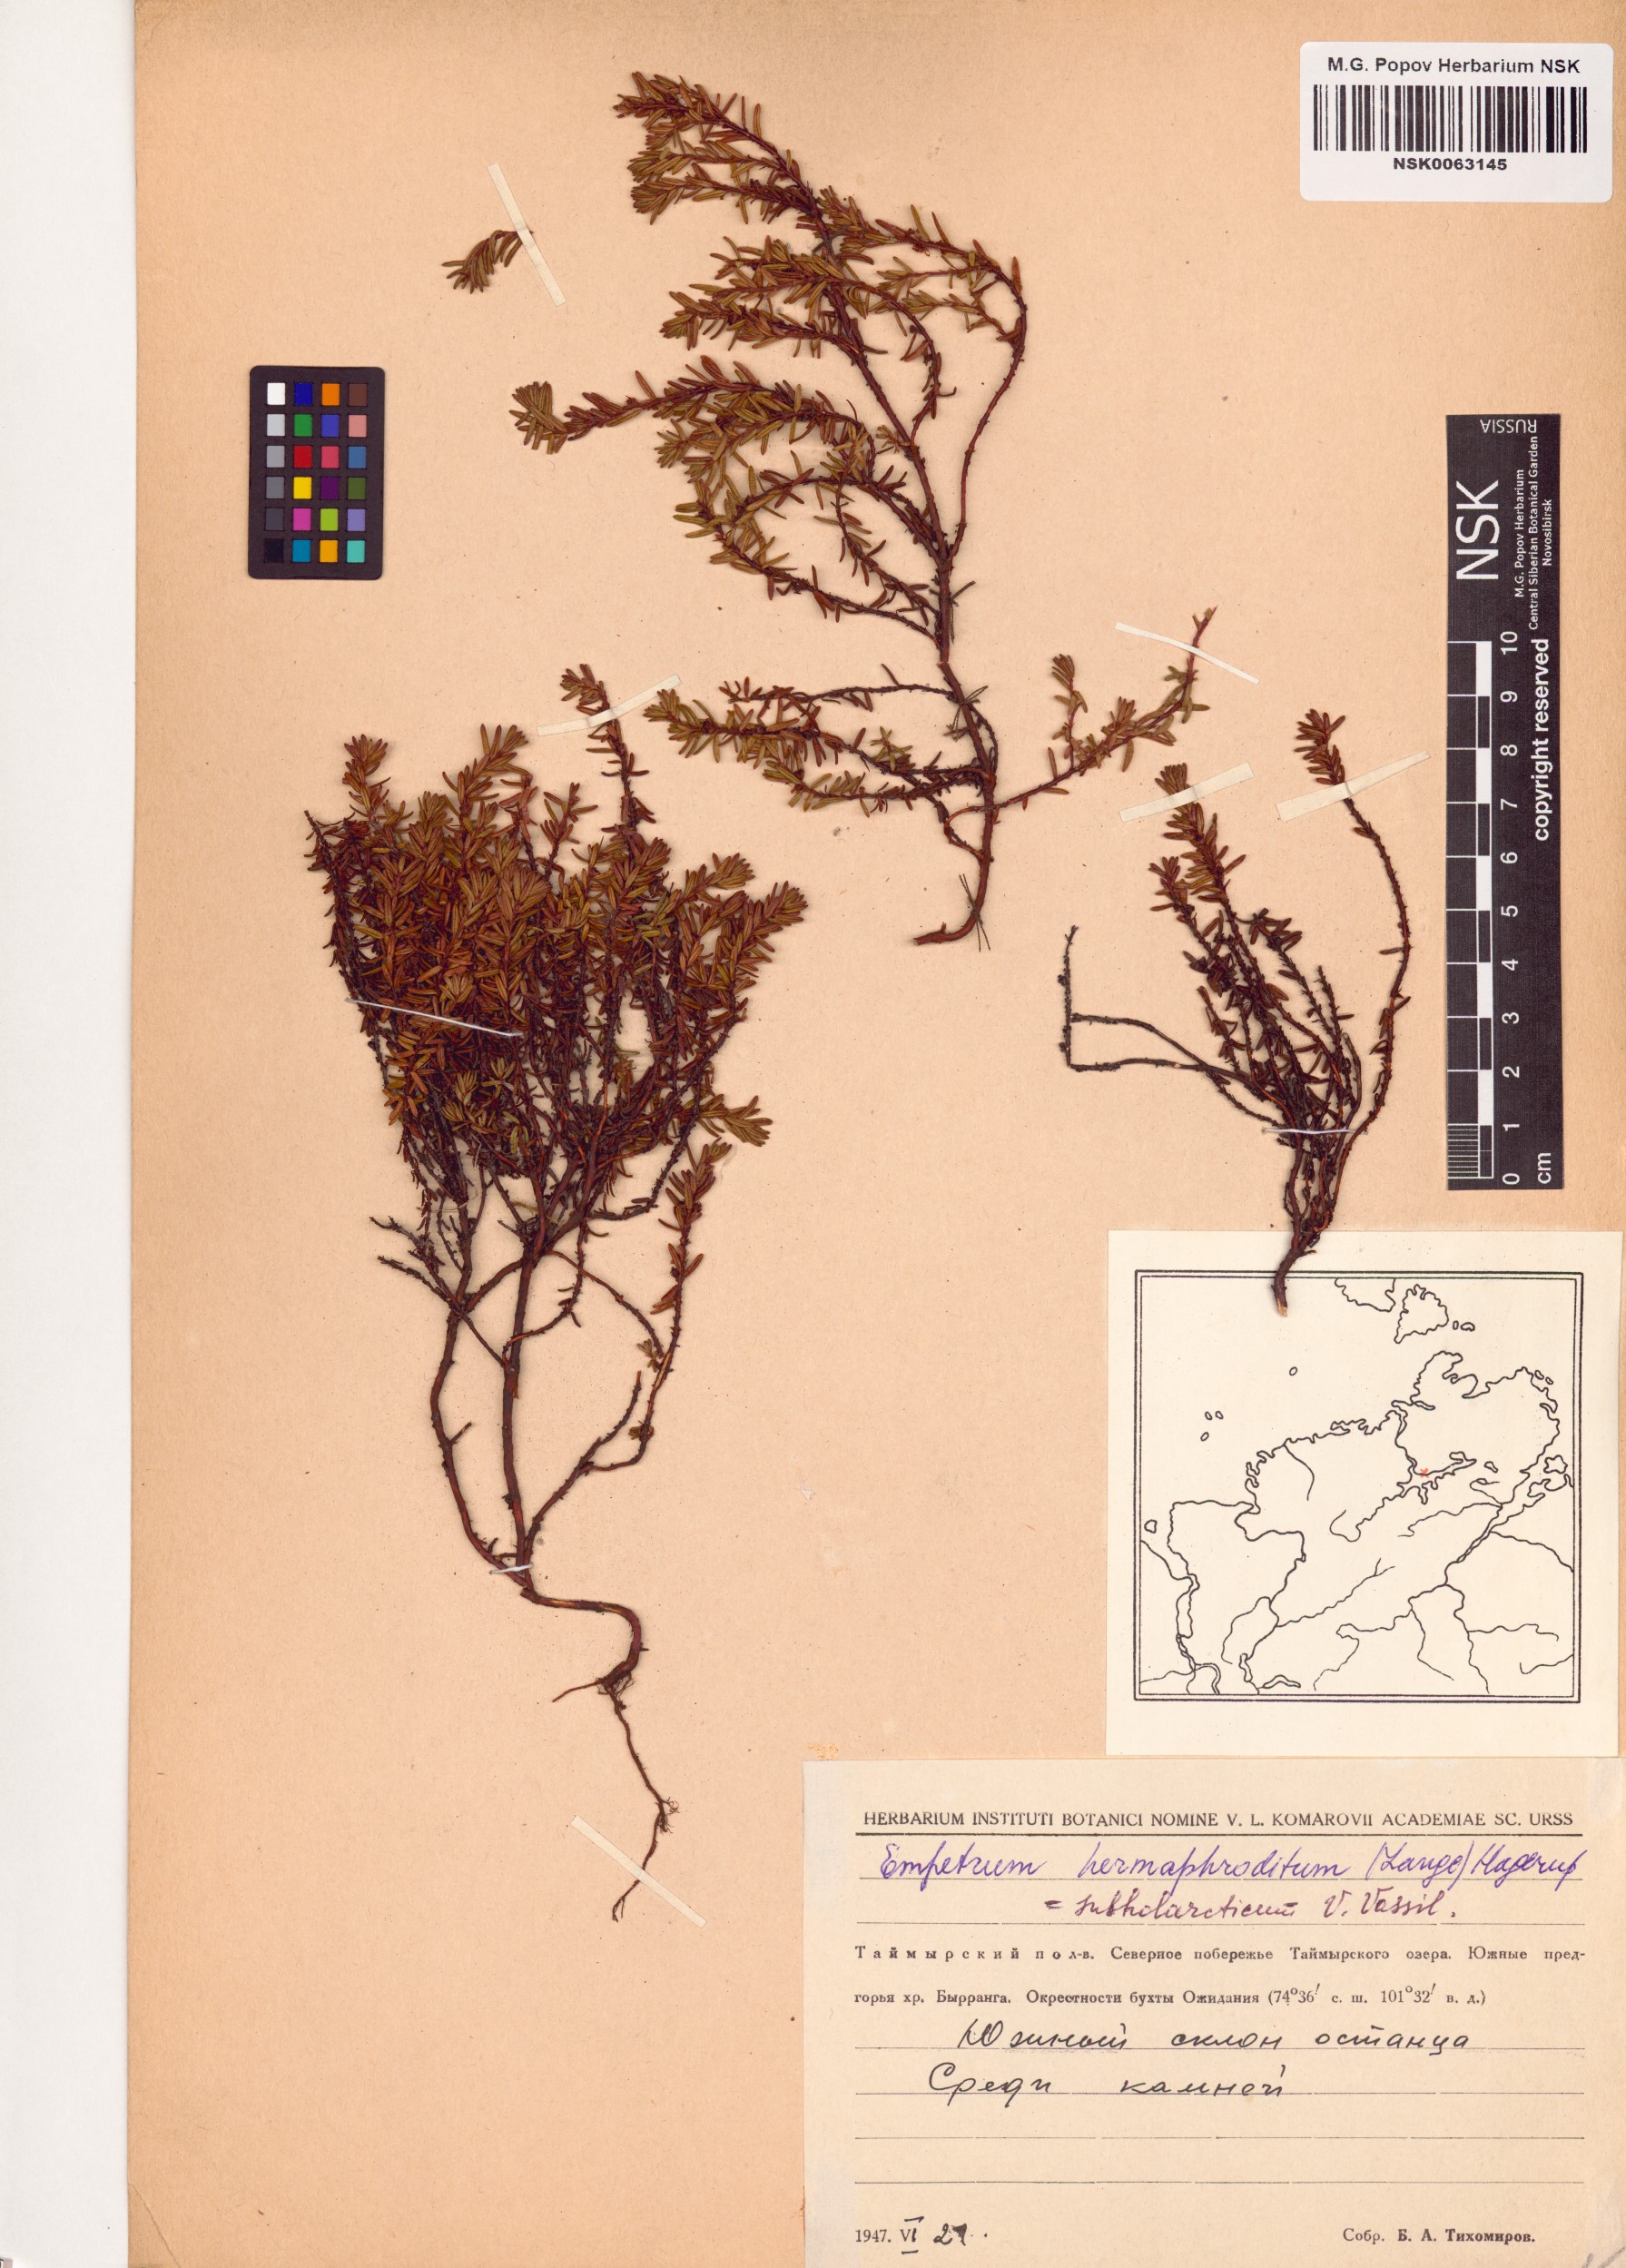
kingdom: Plantae
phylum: Tracheophyta
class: Magnoliopsida
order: Ericales
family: Ericaceae
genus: Empetrum
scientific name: Empetrum hermaphroditum
